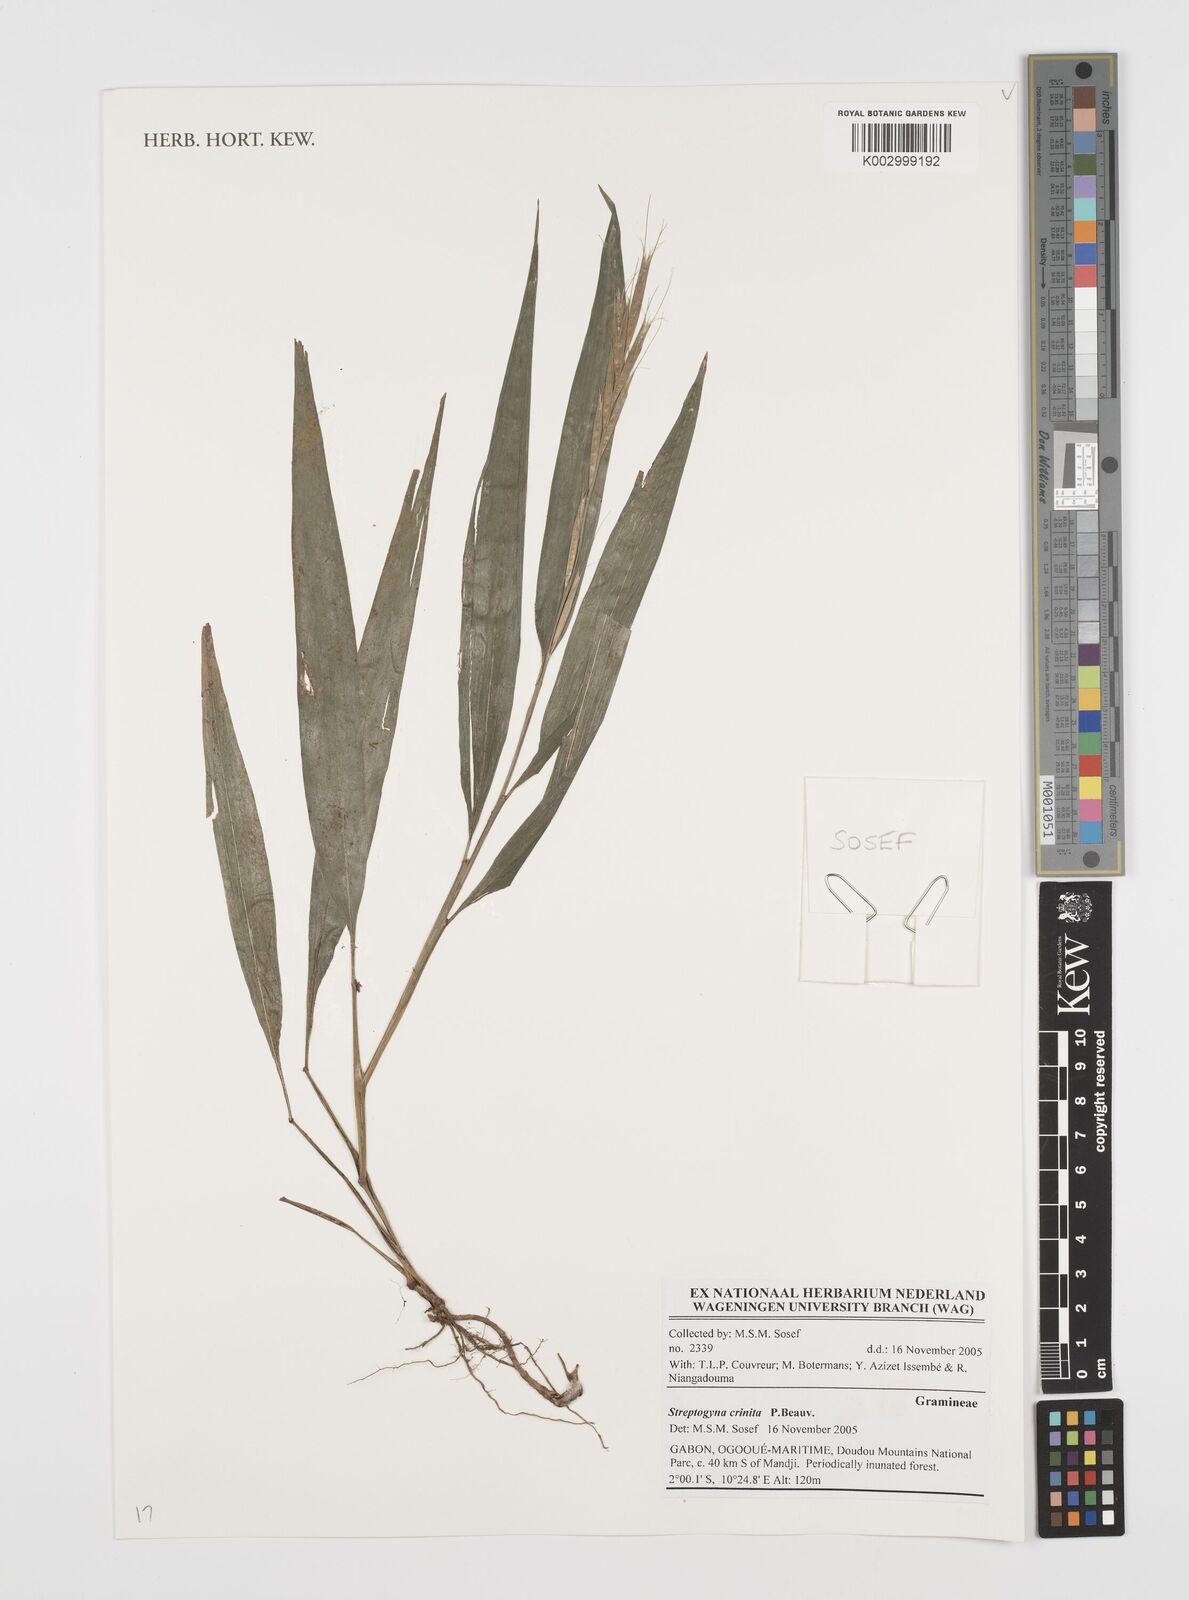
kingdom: Plantae
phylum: Tracheophyta
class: Liliopsida
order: Poales
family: Poaceae
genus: Streptogyna
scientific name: Streptogyna crinita
